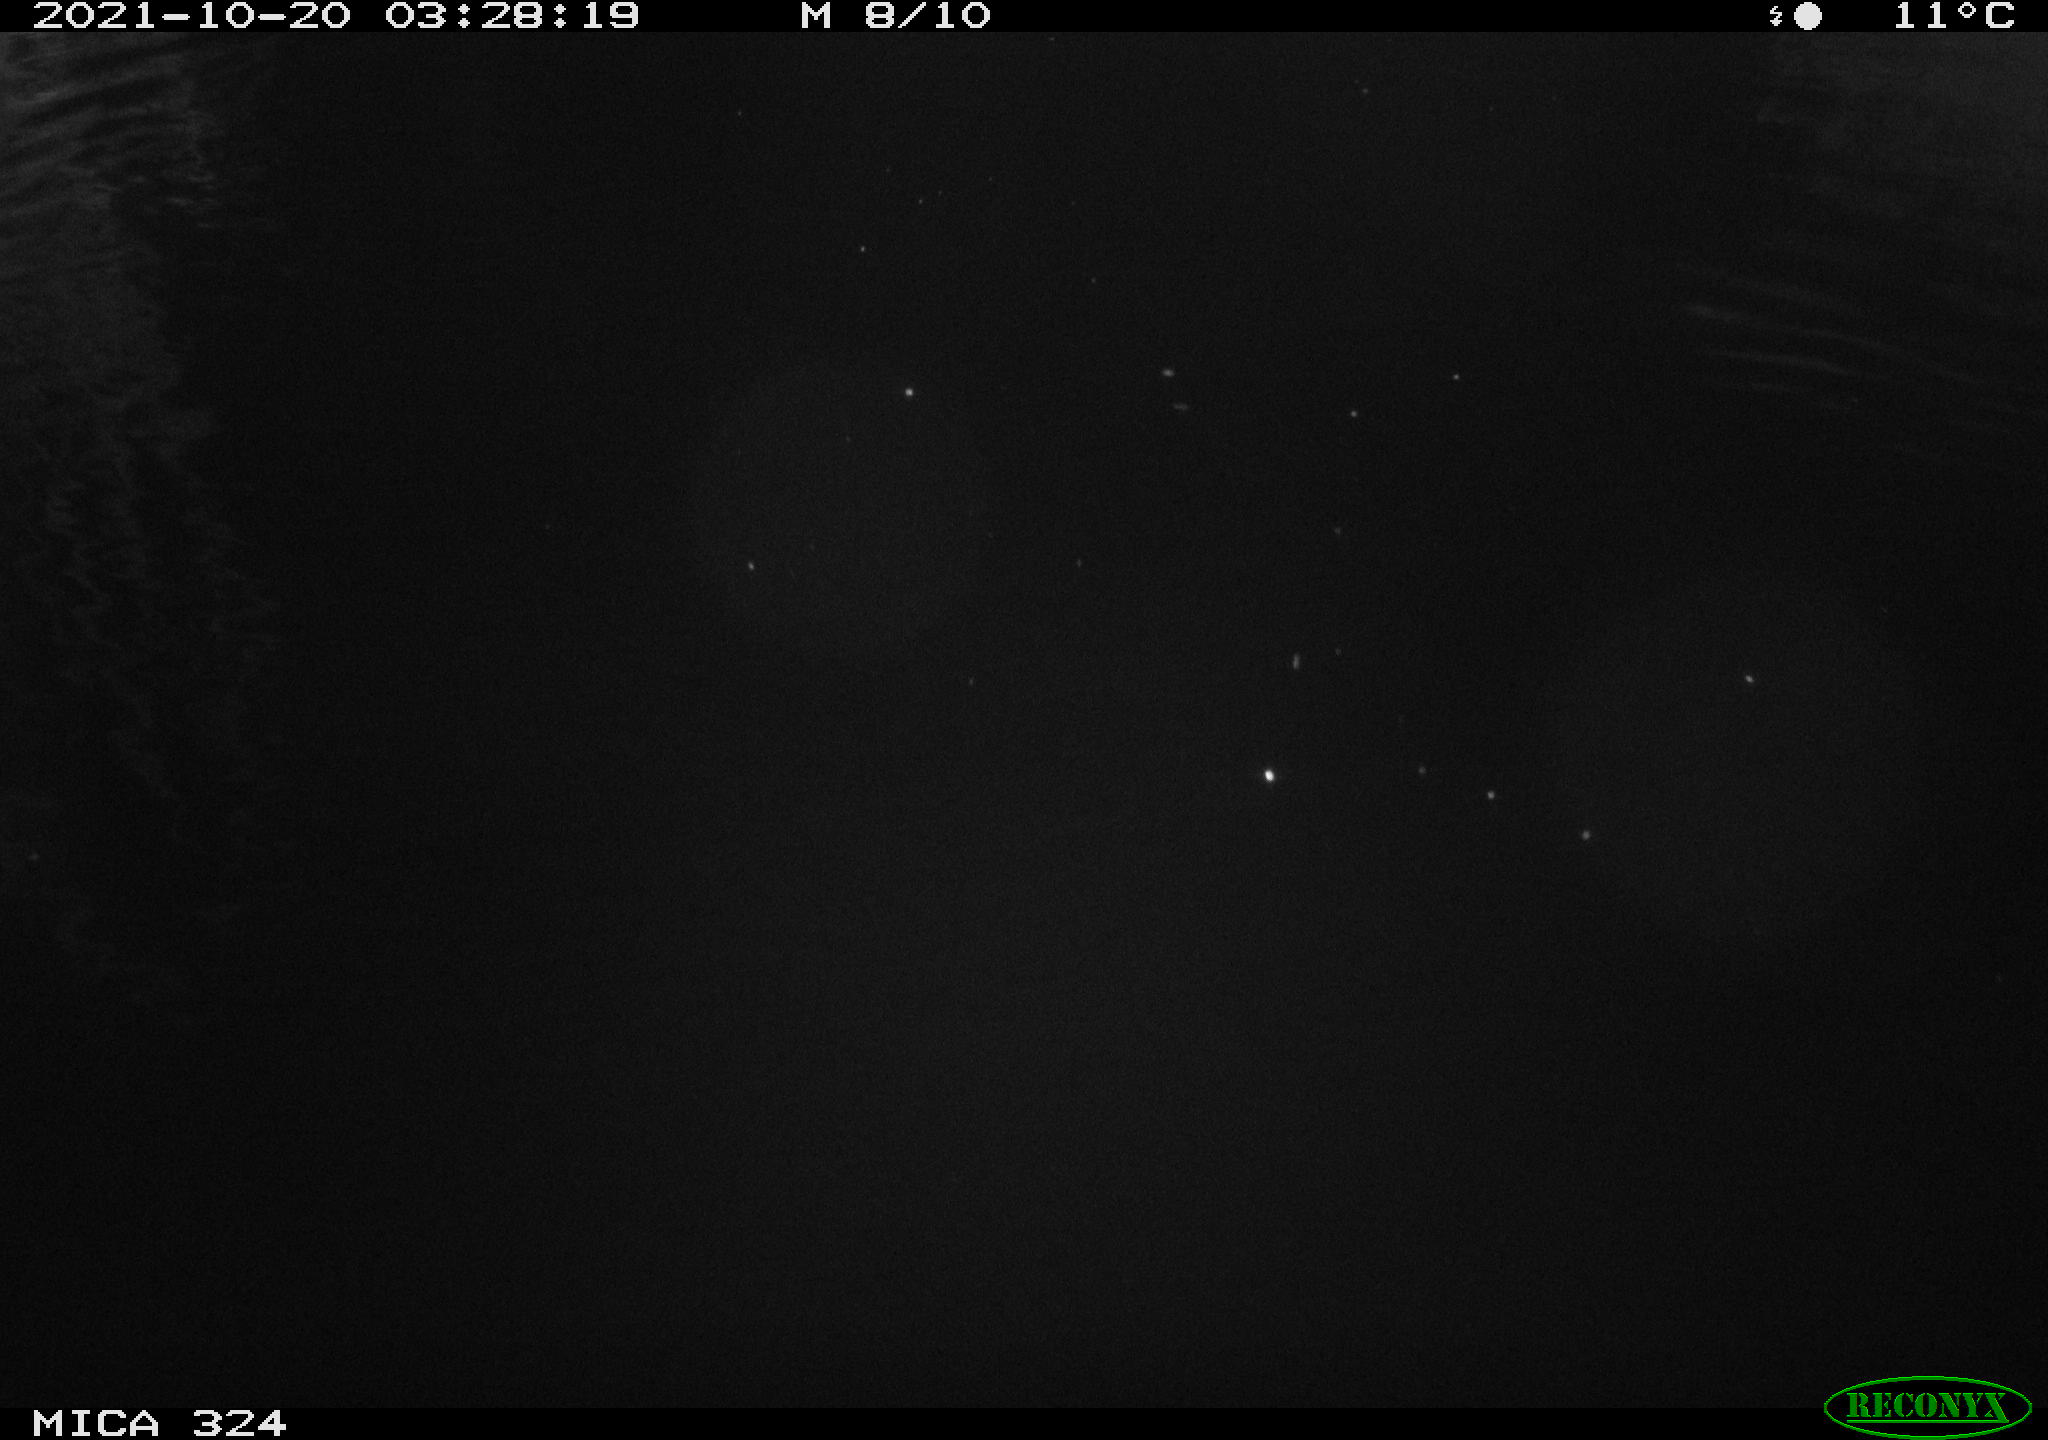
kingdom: Animalia
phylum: Chordata
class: Mammalia
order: Rodentia
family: Cricetidae
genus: Ondatra
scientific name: Ondatra zibethicus
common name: Muskrat
